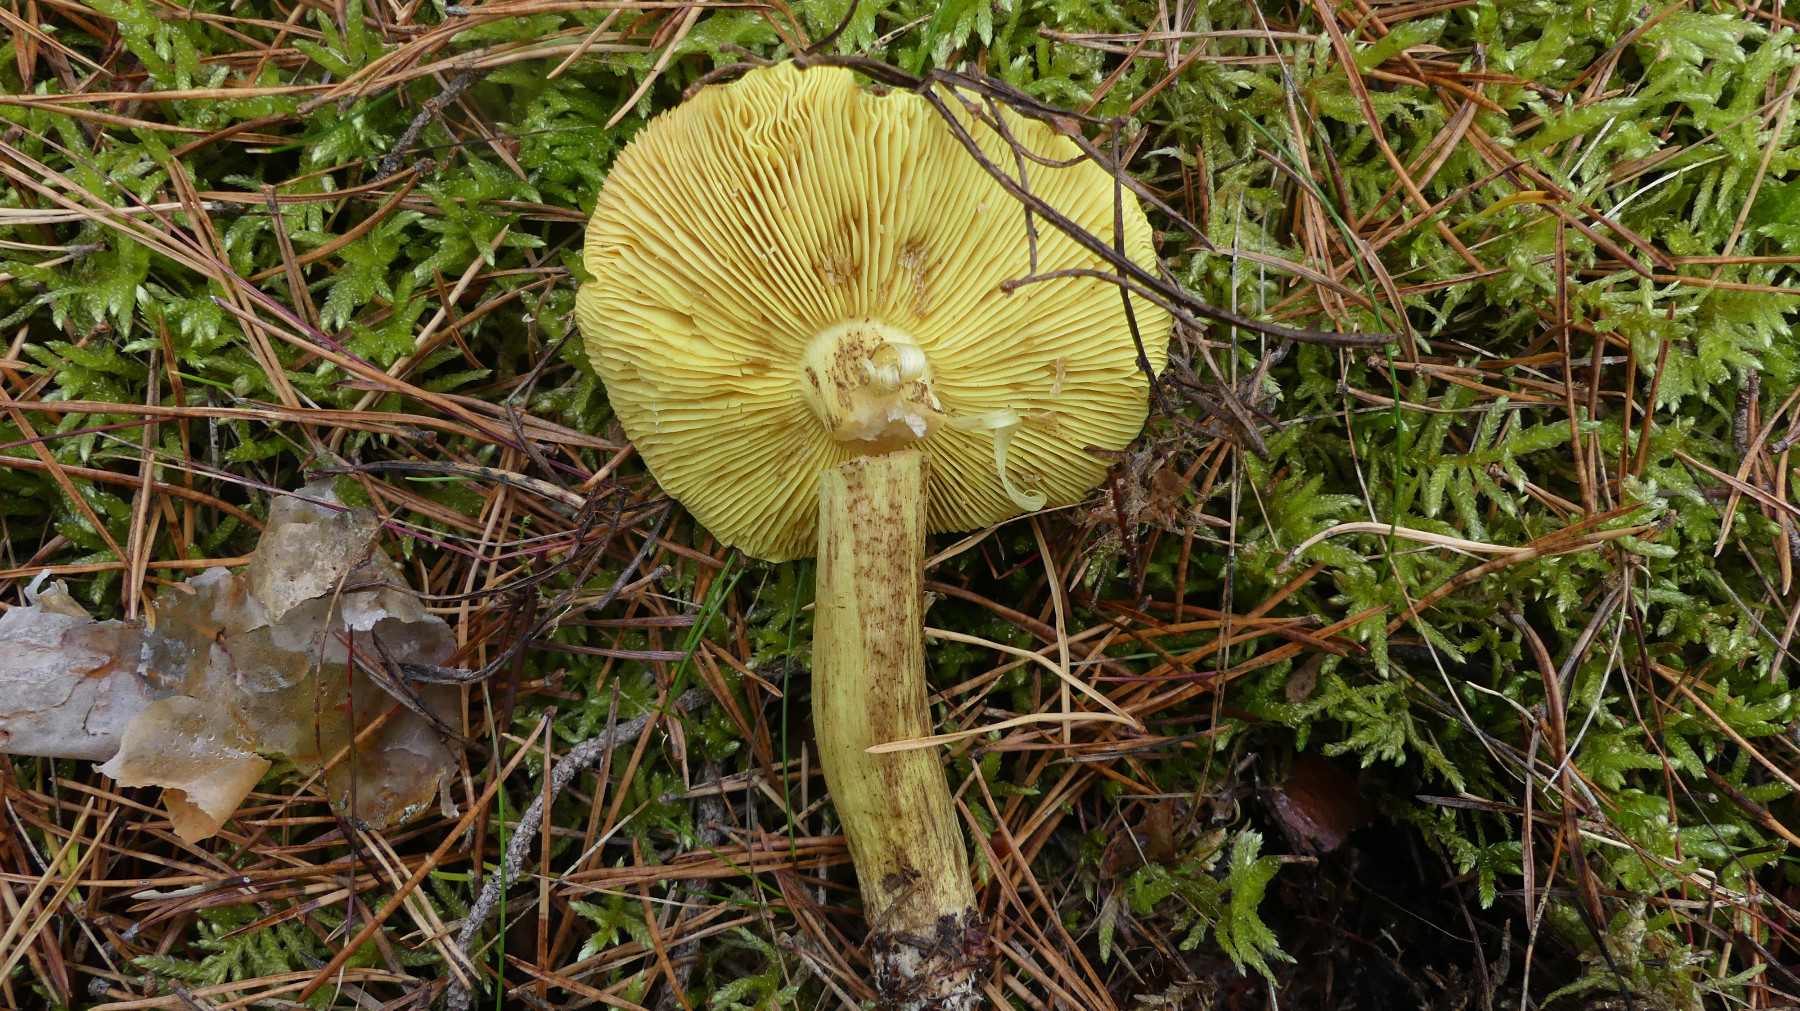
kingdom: Fungi
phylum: Basidiomycota
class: Agaricomycetes
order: Agaricales
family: Tricholomataceae
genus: Tricholoma
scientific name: Tricholoma equestre
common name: ægte ridderhat
